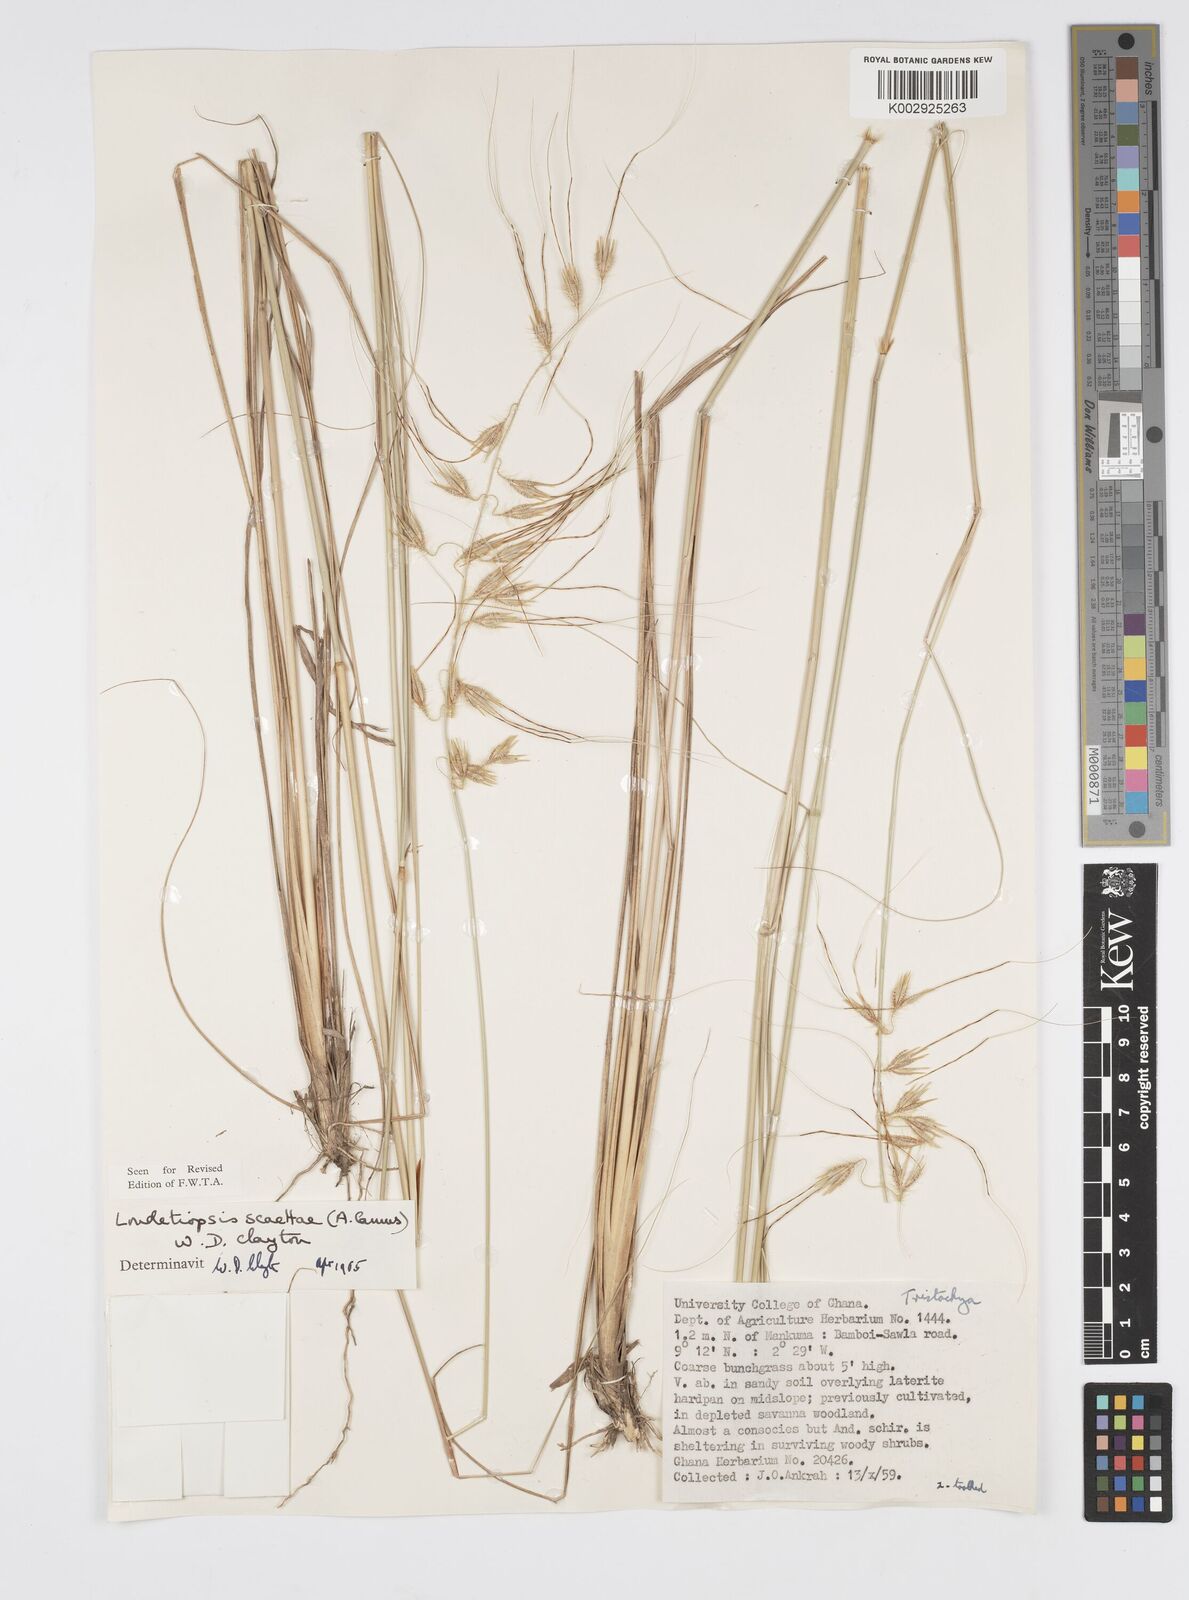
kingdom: Plantae
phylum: Tracheophyta
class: Liliopsida
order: Poales
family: Poaceae
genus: Loudetiopsis
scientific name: Loudetiopsis scaettae
